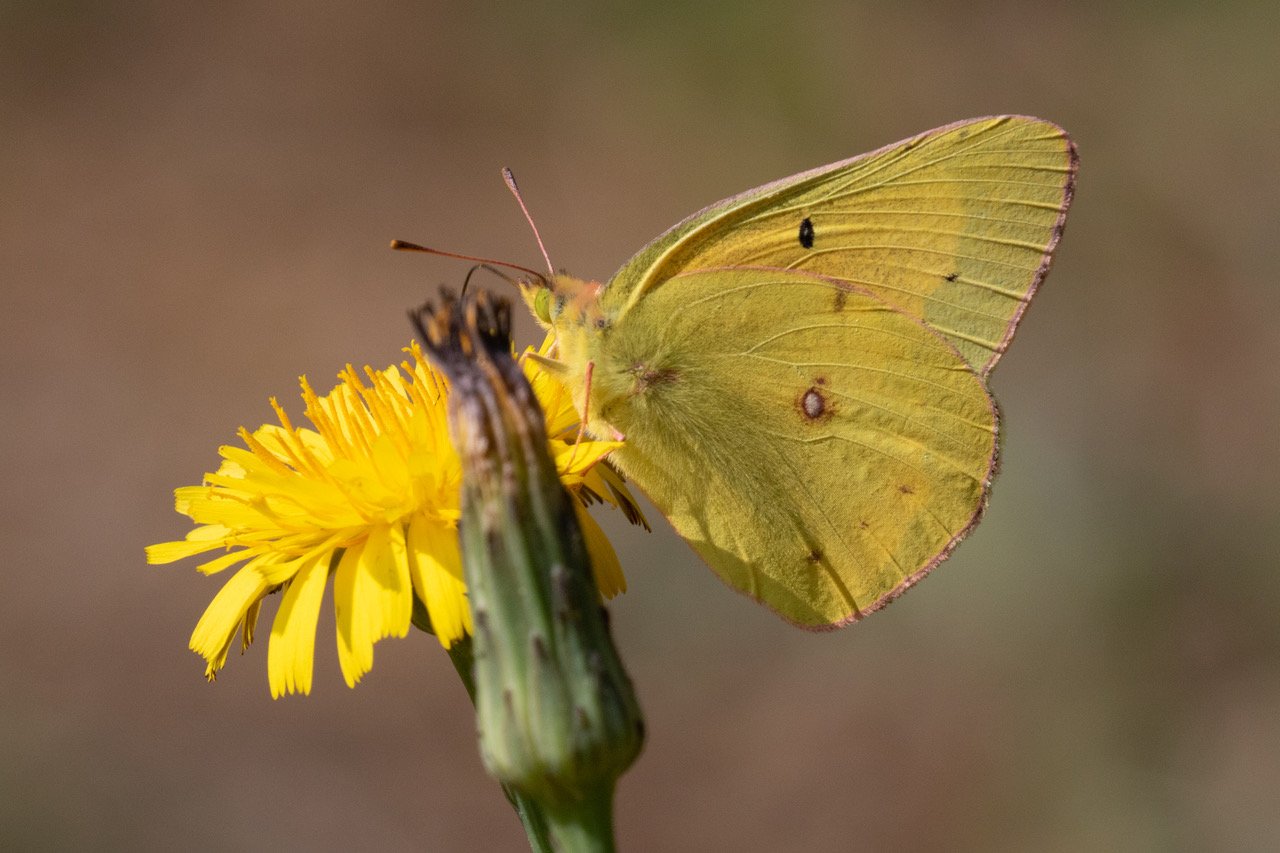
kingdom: Animalia
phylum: Arthropoda
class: Insecta
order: Lepidoptera
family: Pieridae
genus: Colias
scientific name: Colias eurytheme
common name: Orange Sulphur
